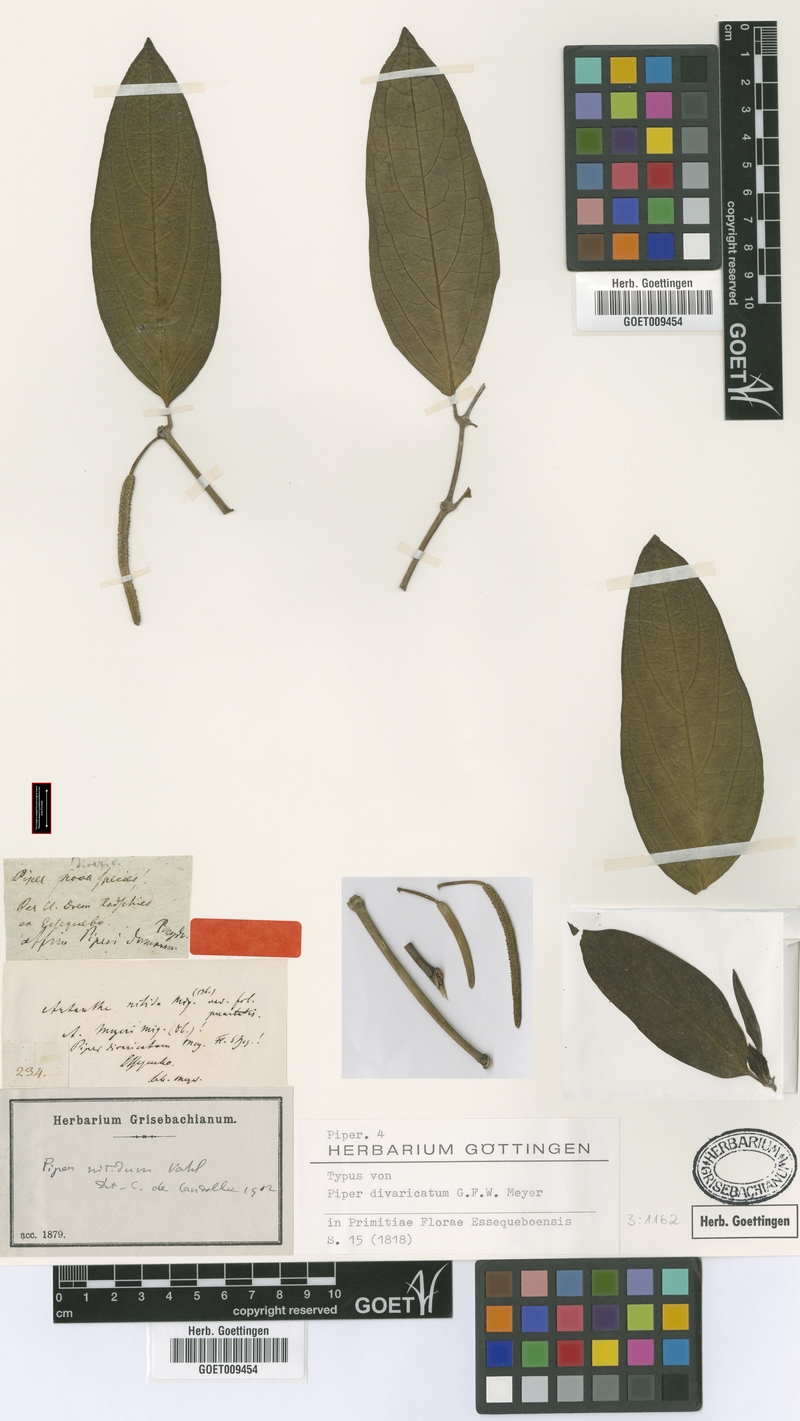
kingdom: Plantae
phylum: Tracheophyta
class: Magnoliopsida
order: Piperales
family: Piperaceae
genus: Piper
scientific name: Piper divaricatum
